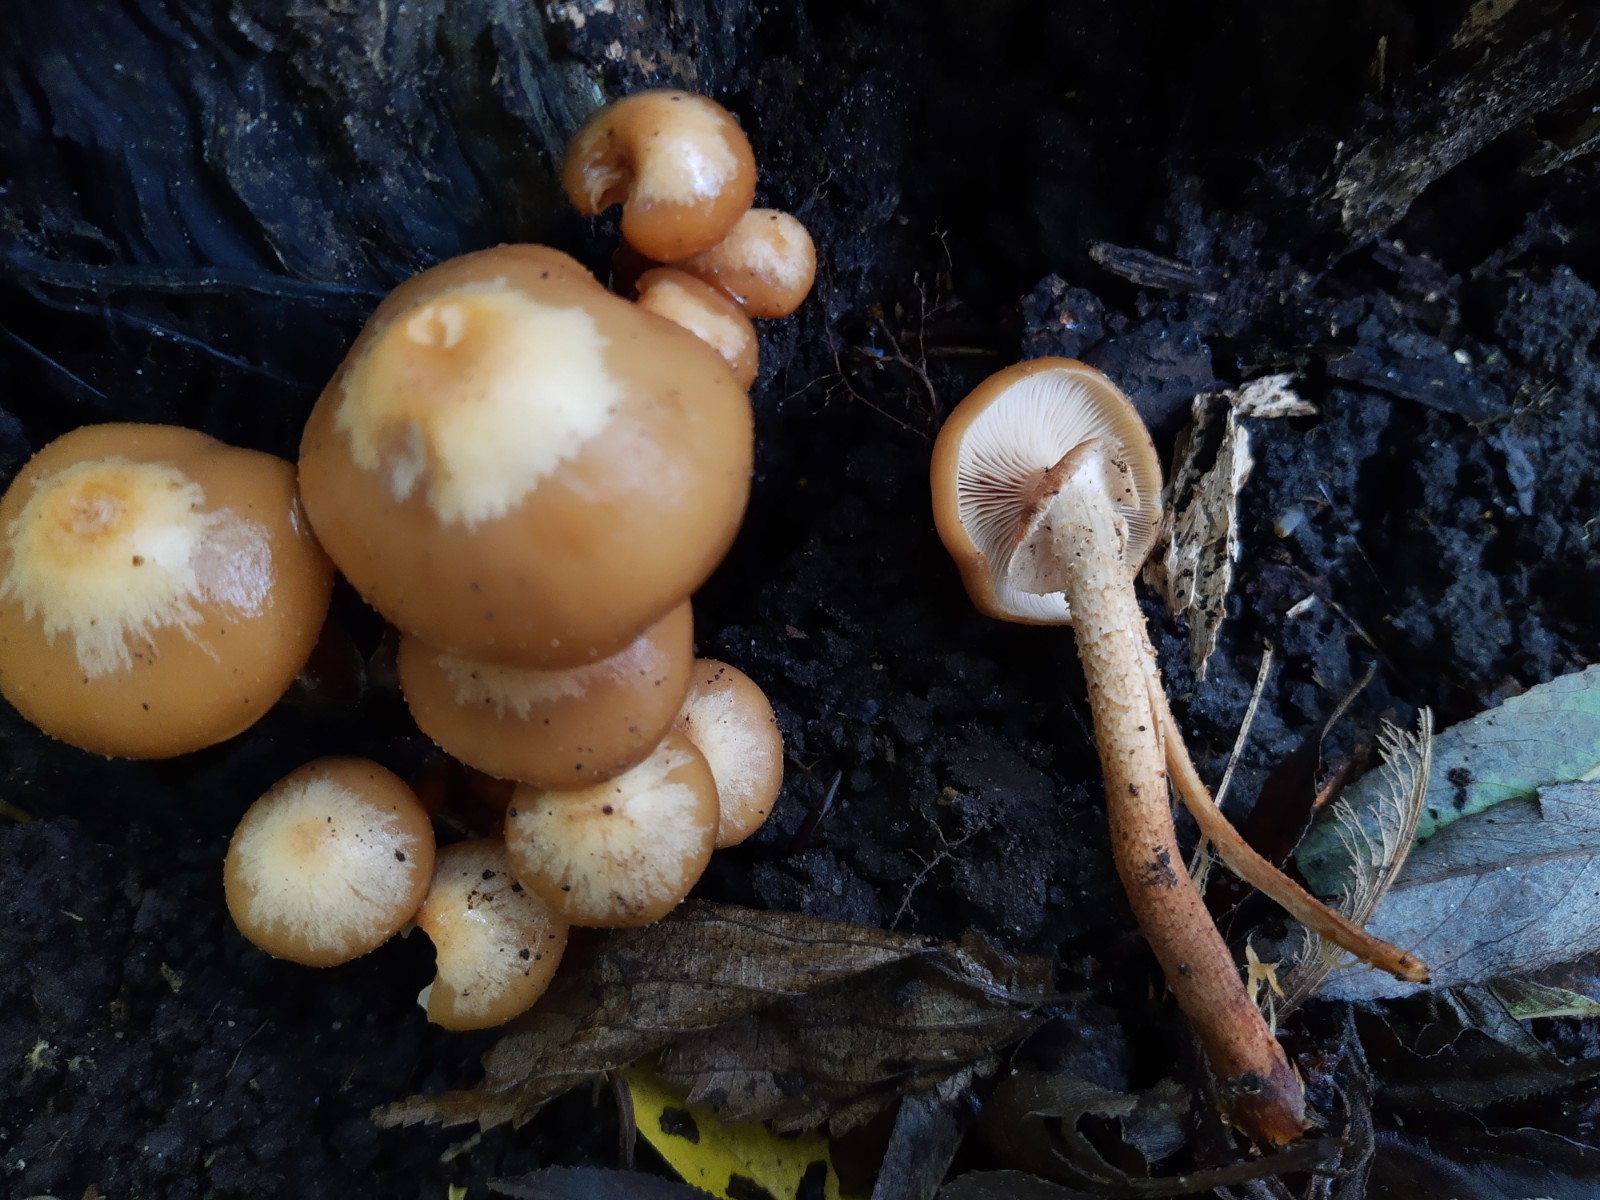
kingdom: Fungi
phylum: Basidiomycota
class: Agaricomycetes
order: Agaricales
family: Strophariaceae
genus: Kuehneromyces
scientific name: Kuehneromyces mutabilis
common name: foranderlig skælhat
